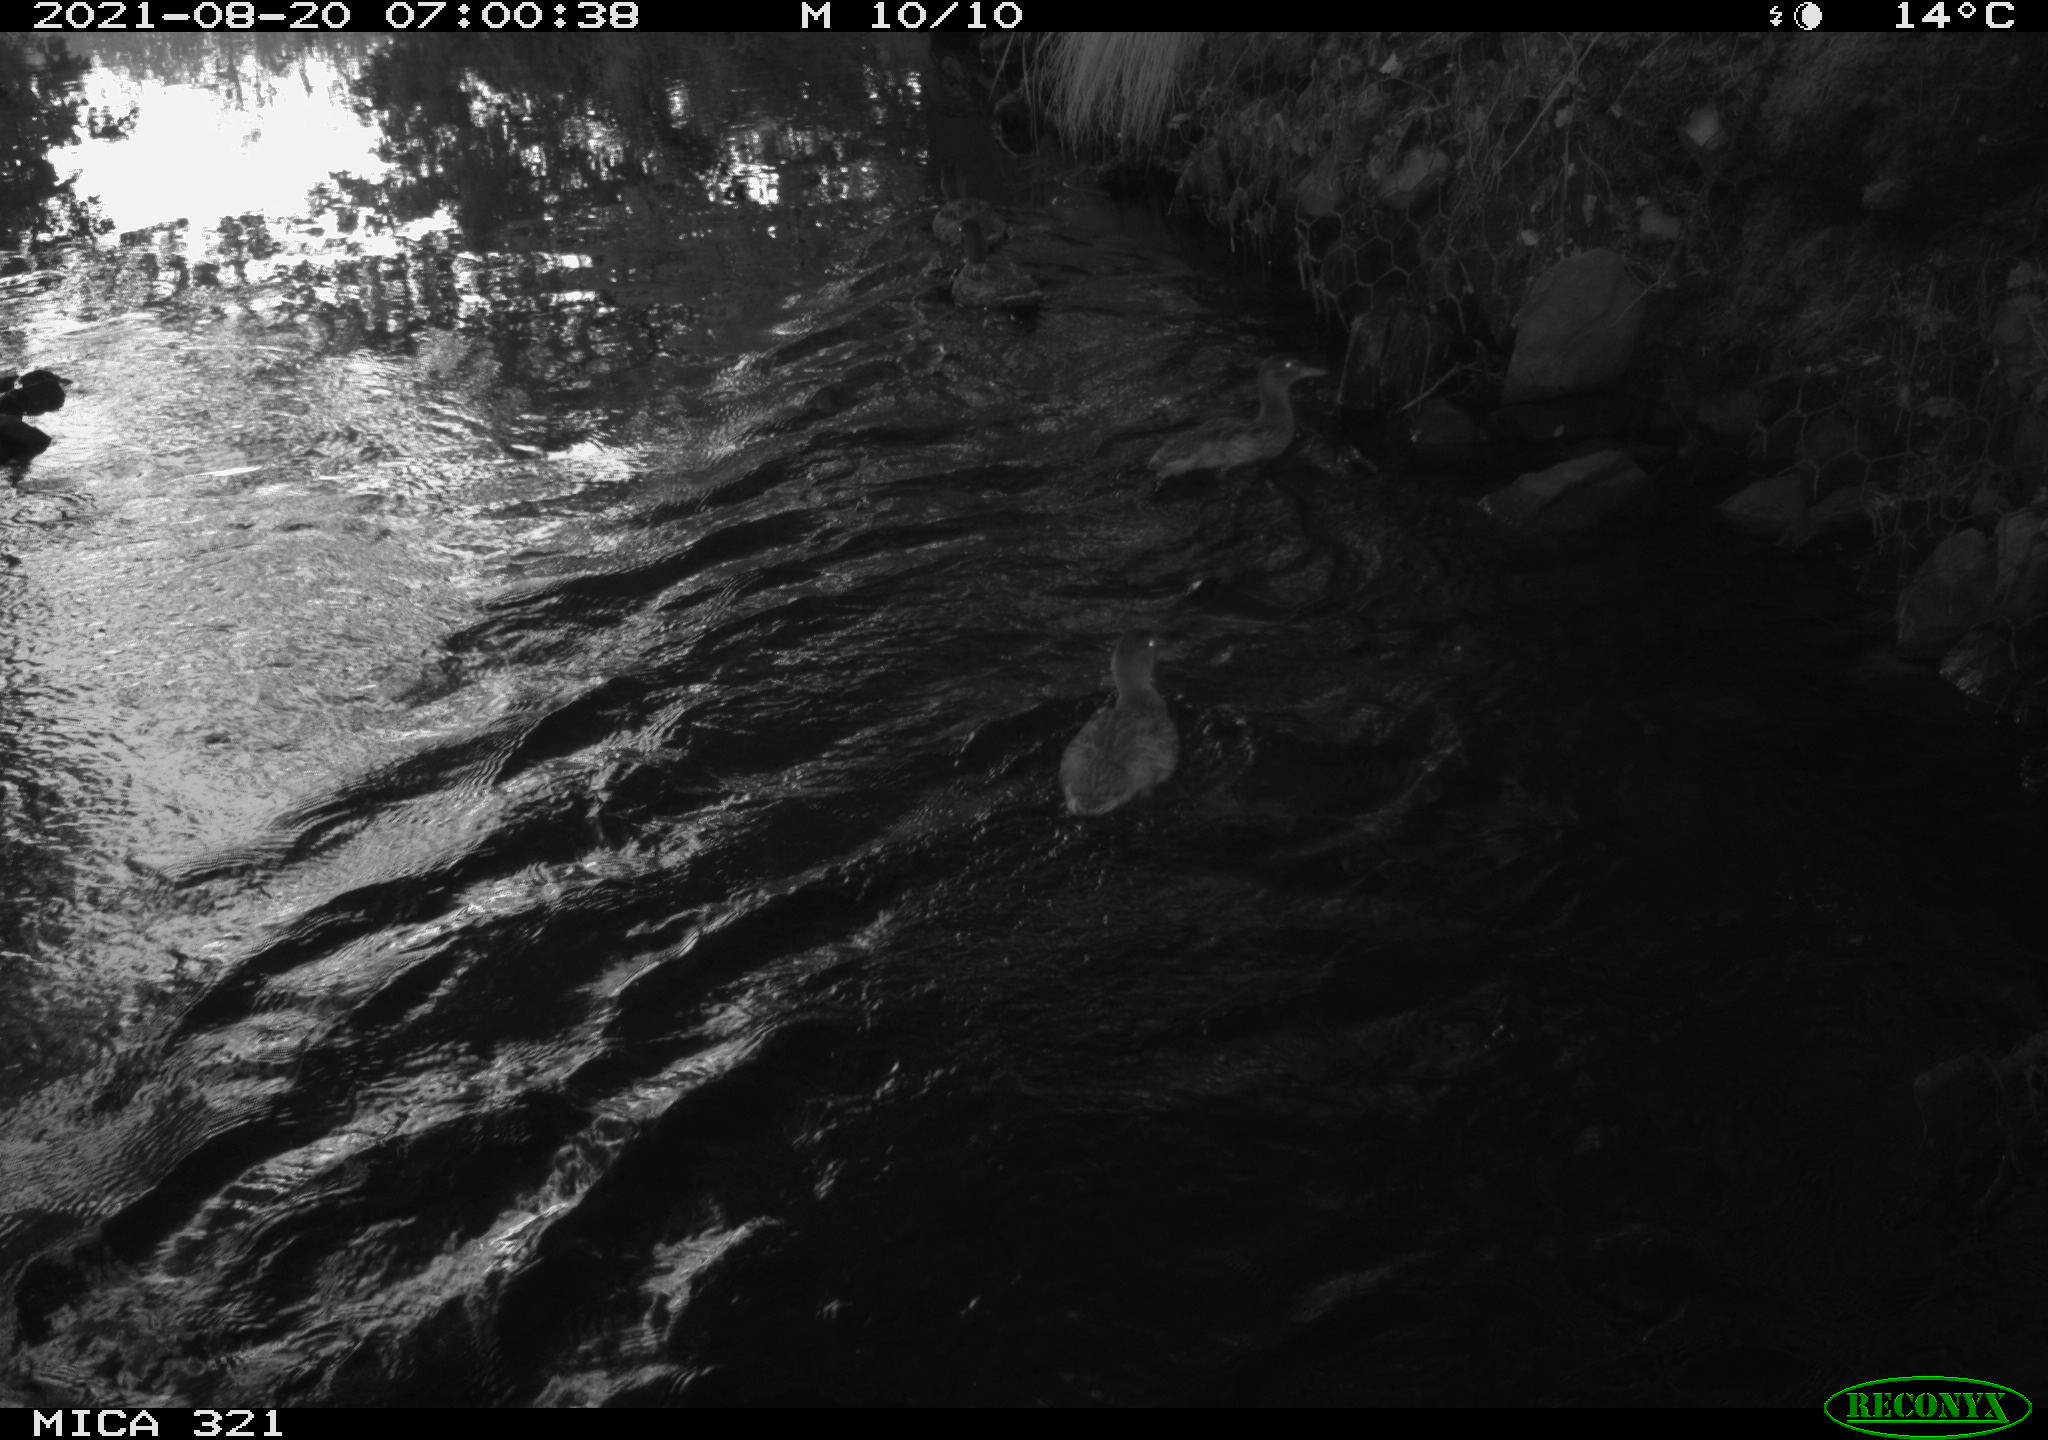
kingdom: Animalia
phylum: Chordata
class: Aves
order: Anseriformes
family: Anatidae
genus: Anas
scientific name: Anas platyrhynchos
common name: Mallard
